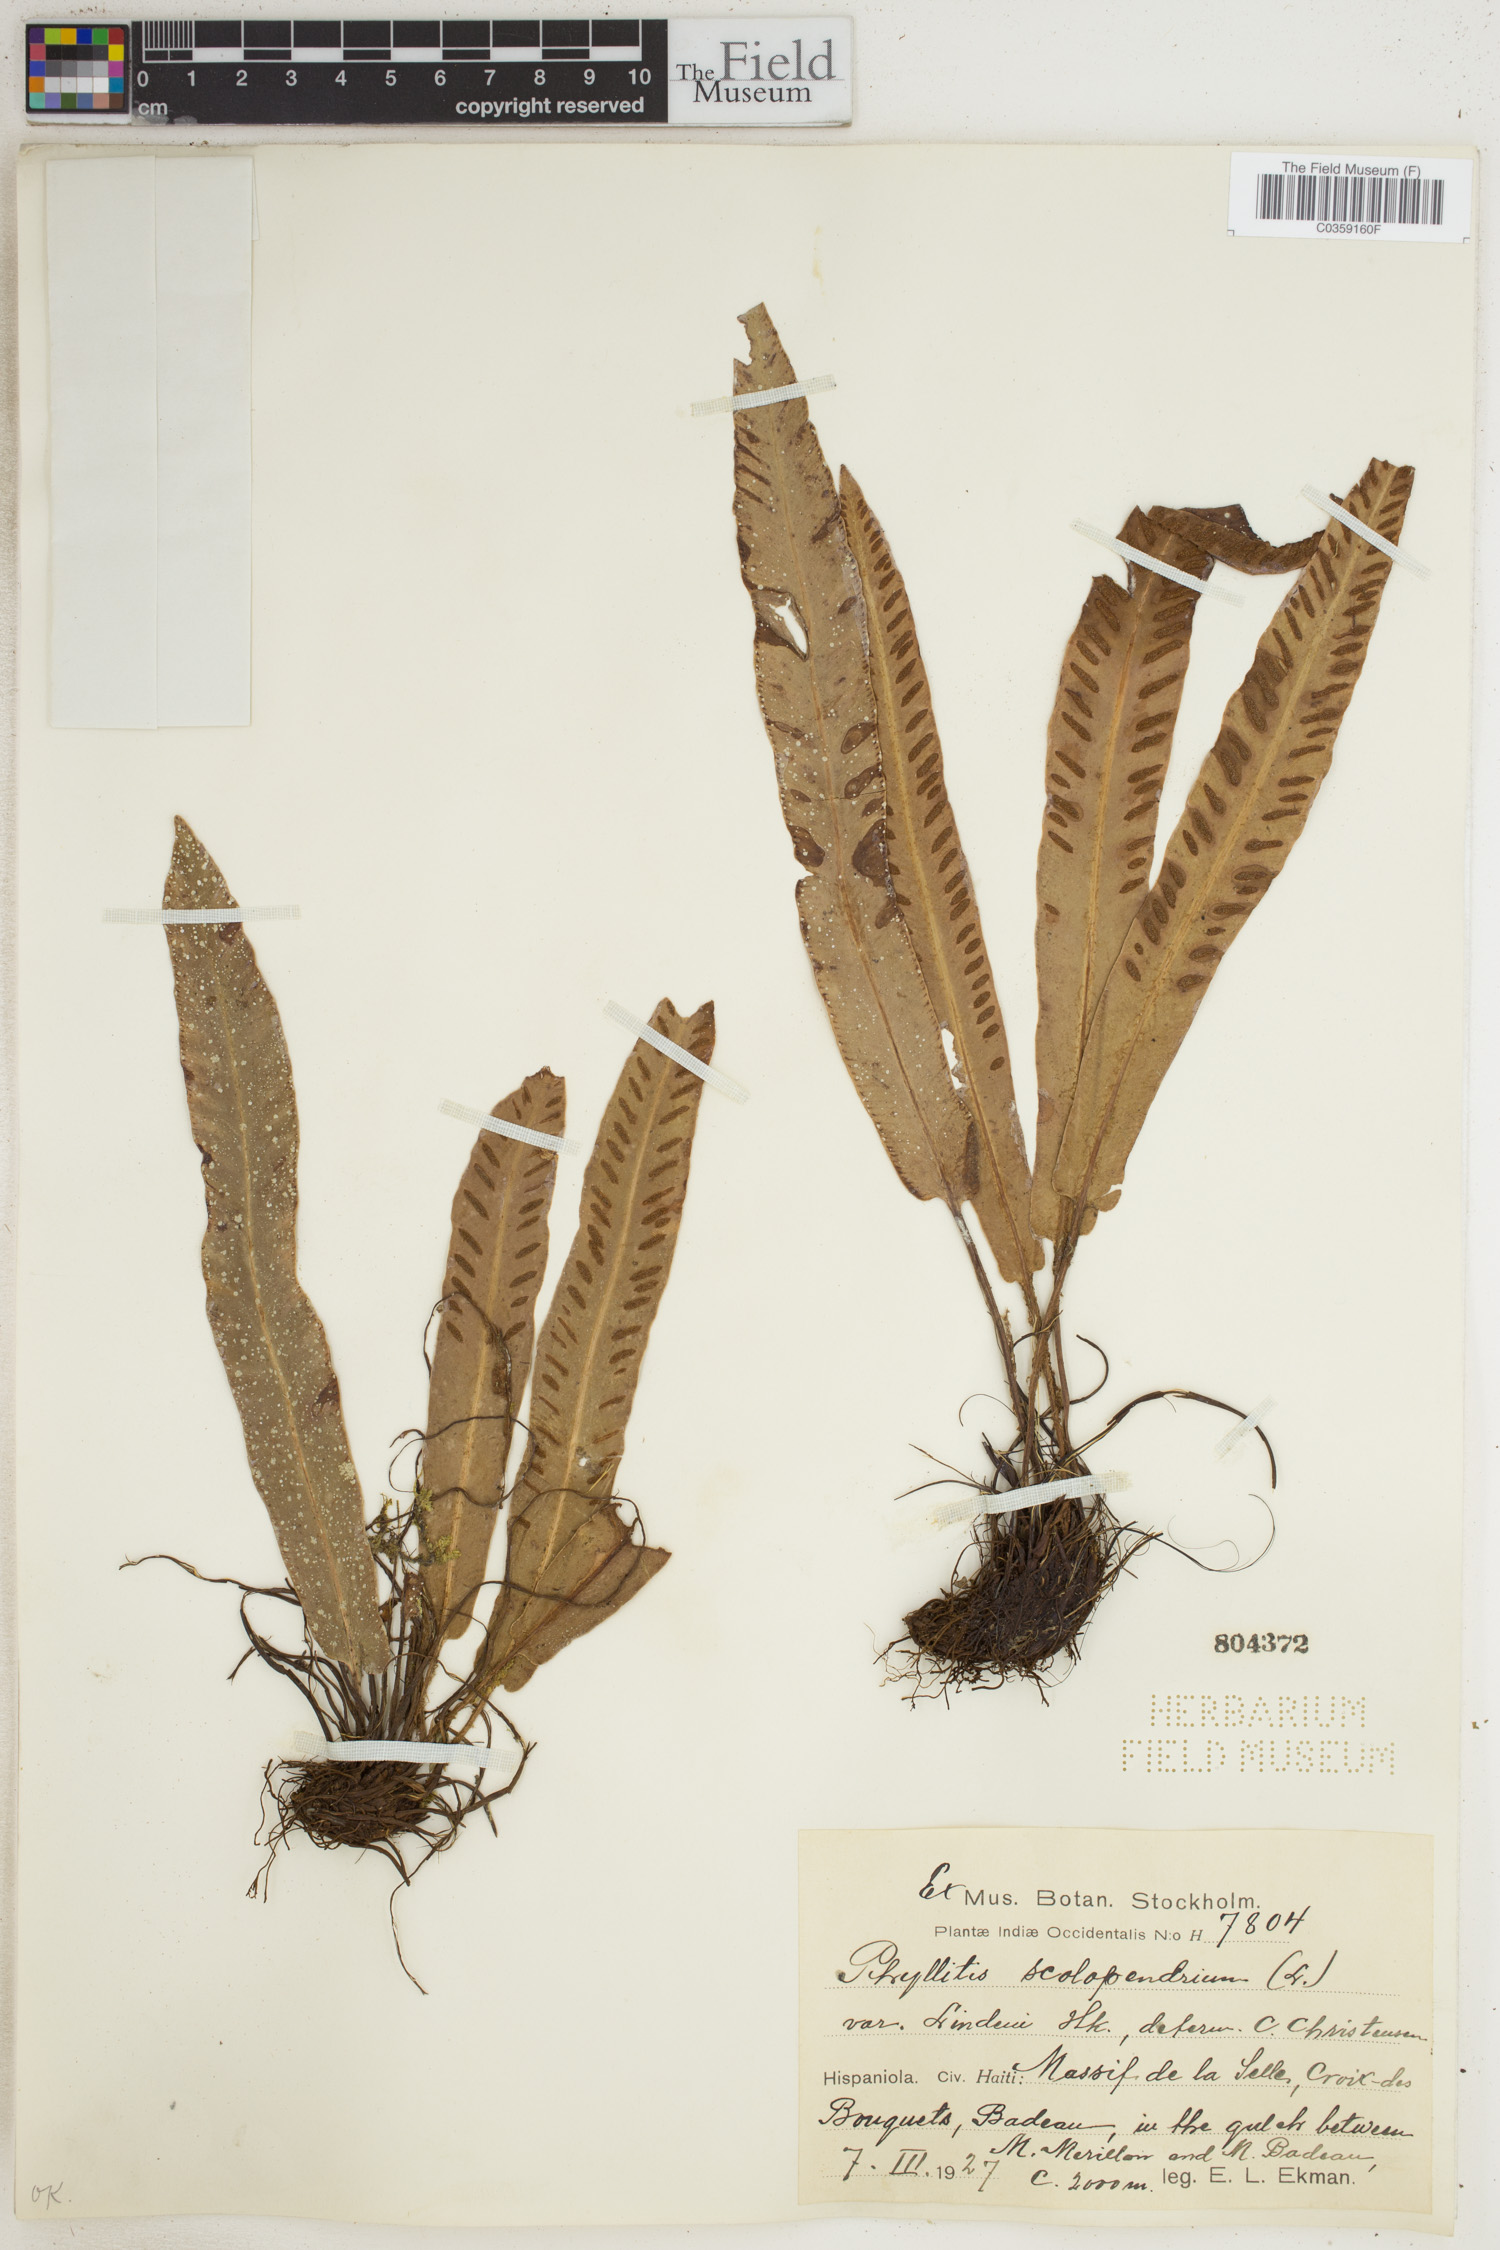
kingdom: Plantae
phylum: Tracheophyta
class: Polypodiopsida
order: Polypodiales
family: Aspleniaceae
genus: Asplenium
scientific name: Asplenium scolopendrium
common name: Hart's-tongue fern
